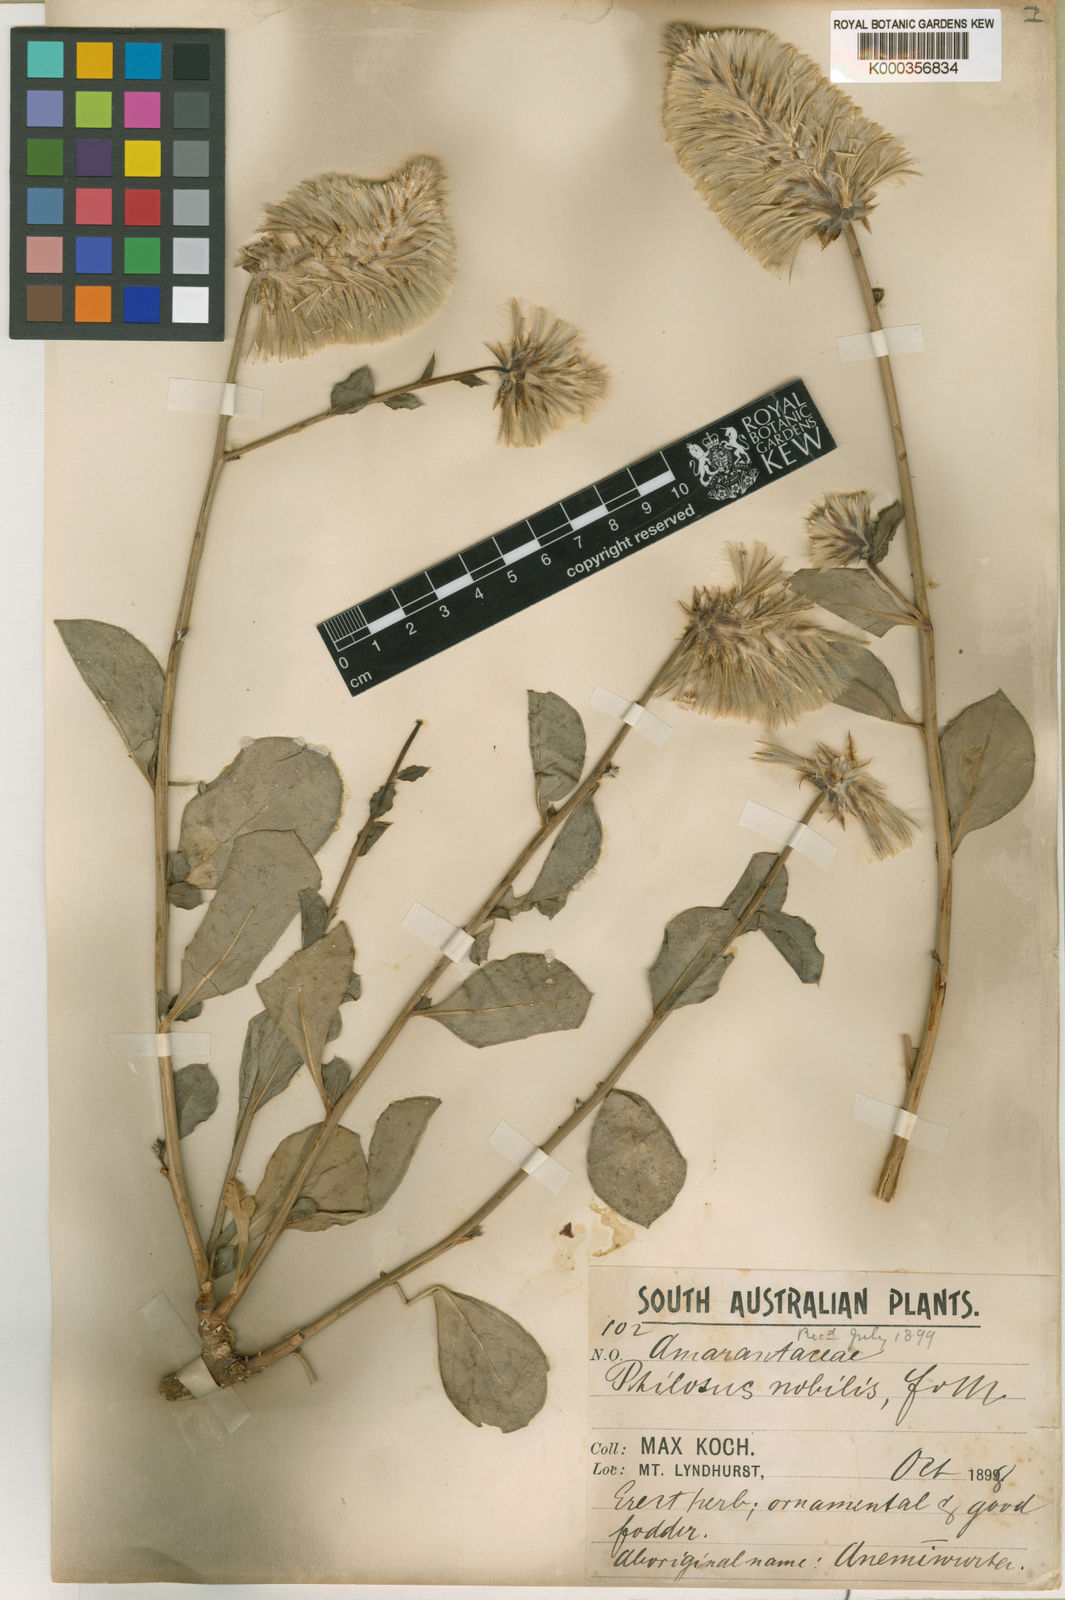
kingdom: Plantae
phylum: Tracheophyta
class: Magnoliopsida
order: Caryophyllales
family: Amaranthaceae
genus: Ptilotus
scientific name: Ptilotus nobilis
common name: Regal-foxtail
